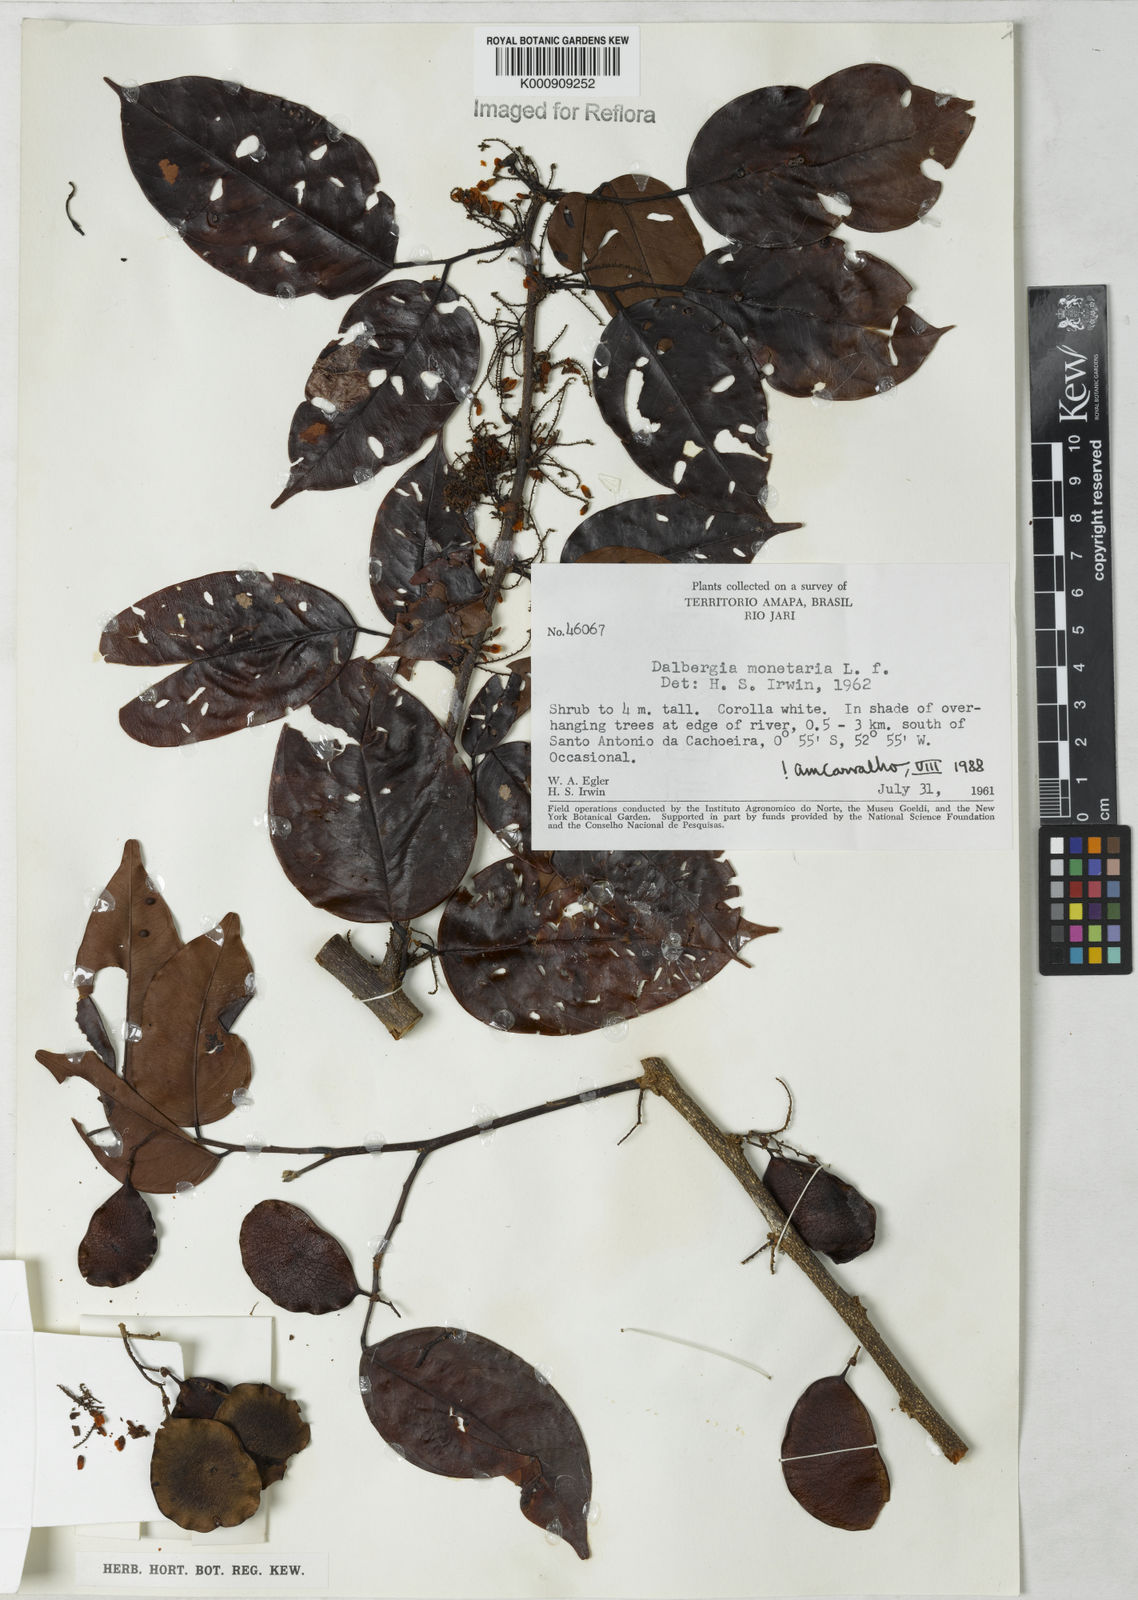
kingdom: Plantae
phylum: Tracheophyta
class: Magnoliopsida
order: Fabales
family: Fabaceae
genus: Dalbergia
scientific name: Dalbergia ovalis
